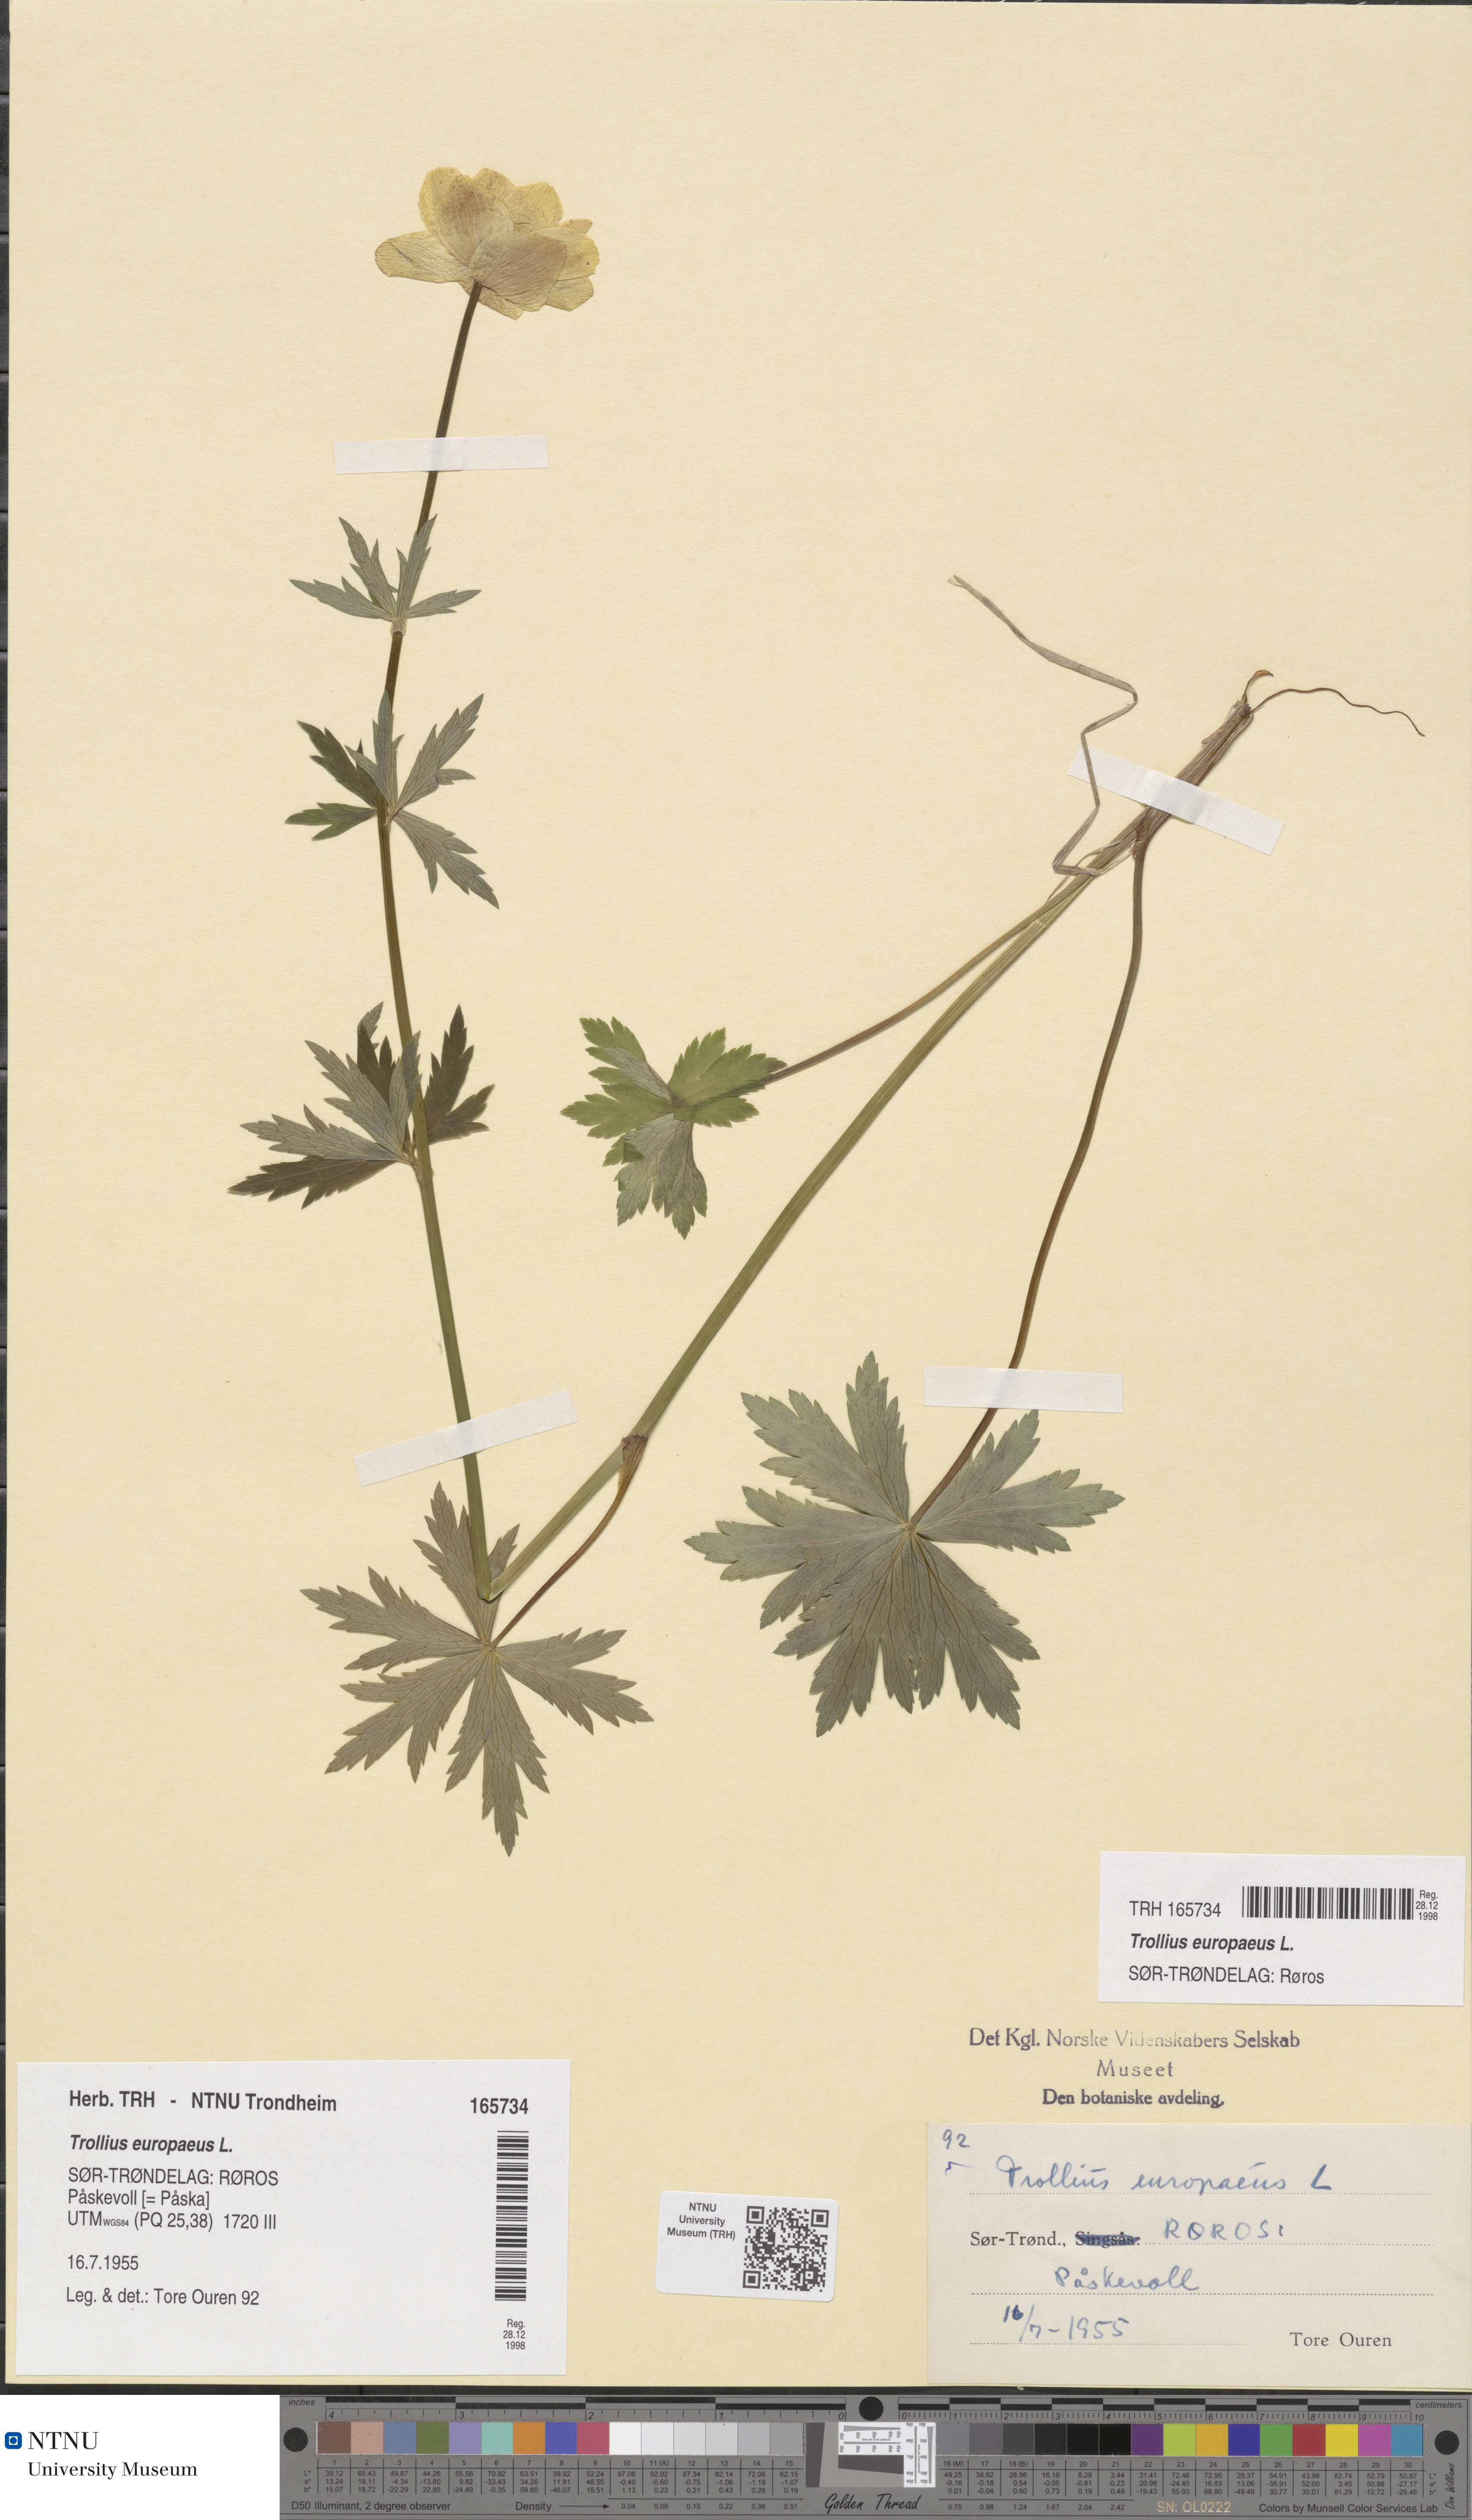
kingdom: Plantae
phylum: Tracheophyta
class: Magnoliopsida
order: Ranunculales
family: Ranunculaceae
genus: Trollius
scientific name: Trollius europaeus
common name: European globeflower
